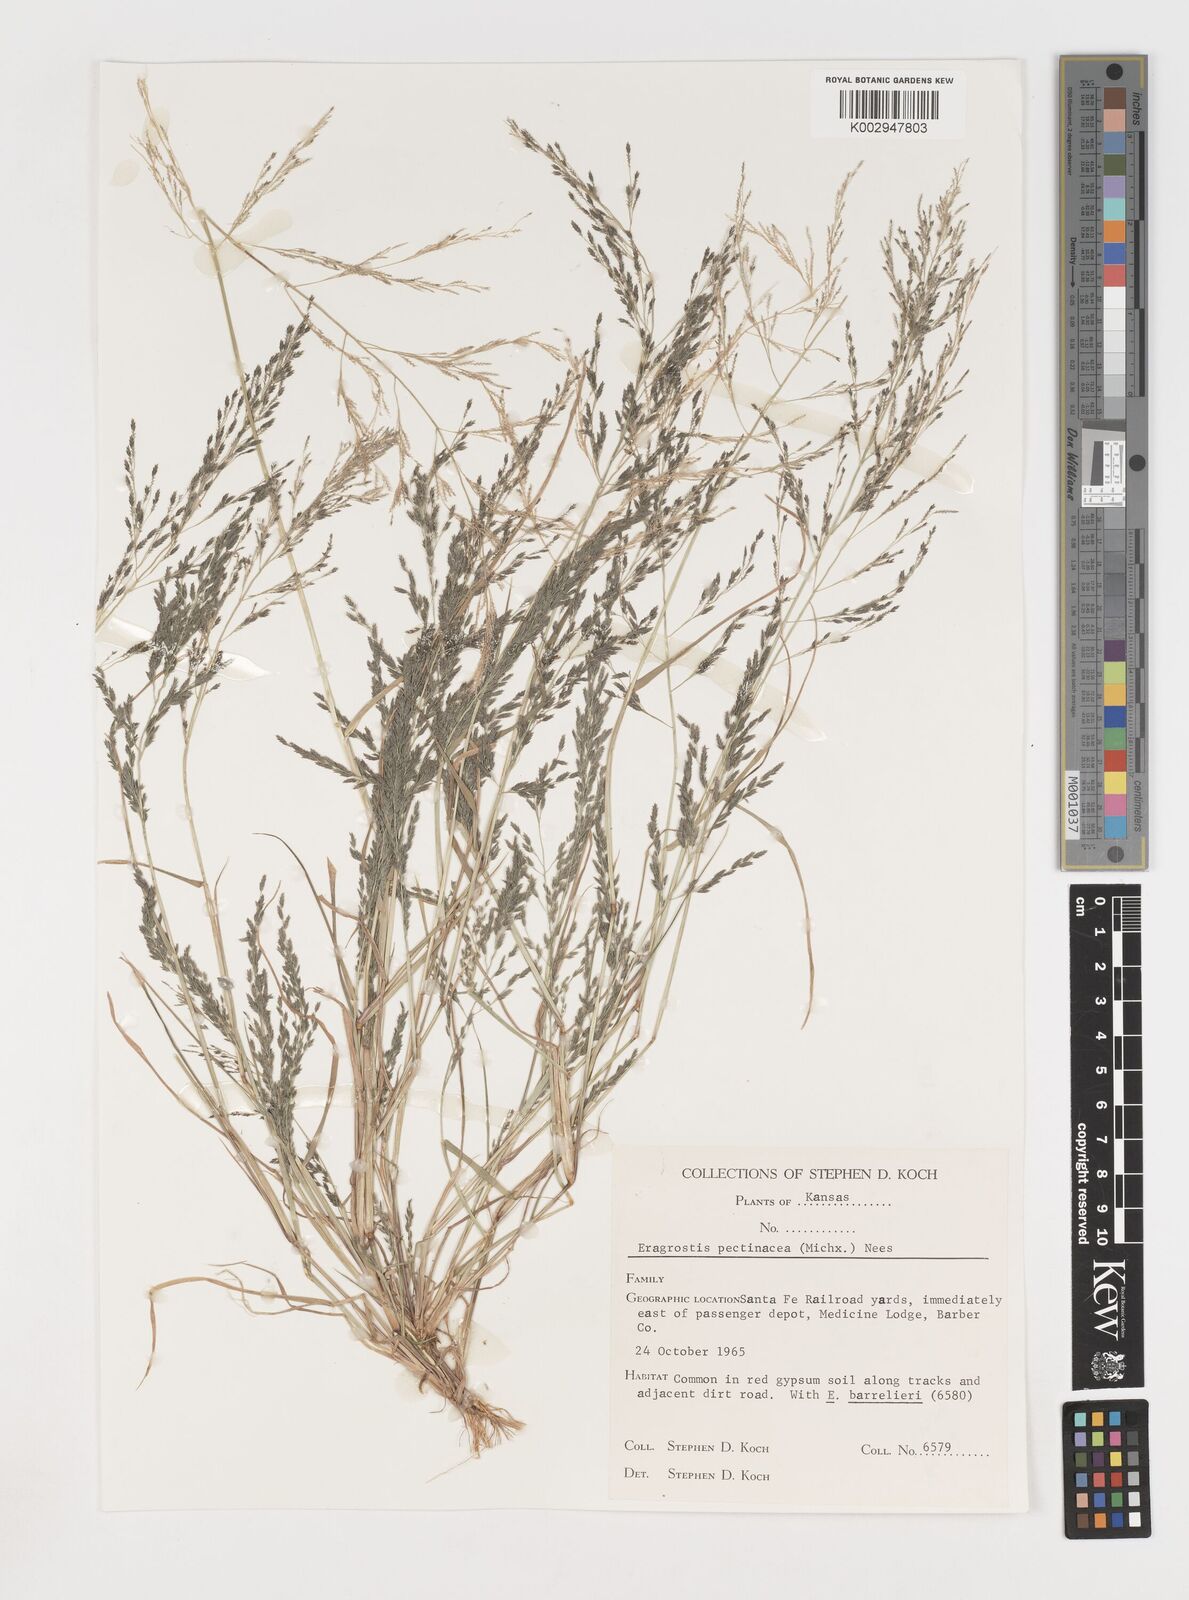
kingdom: Plantae
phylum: Tracheophyta
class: Liliopsida
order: Poales
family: Poaceae
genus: Eragrostis
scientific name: Eragrostis pectinacea
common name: Tufted lovegrass
